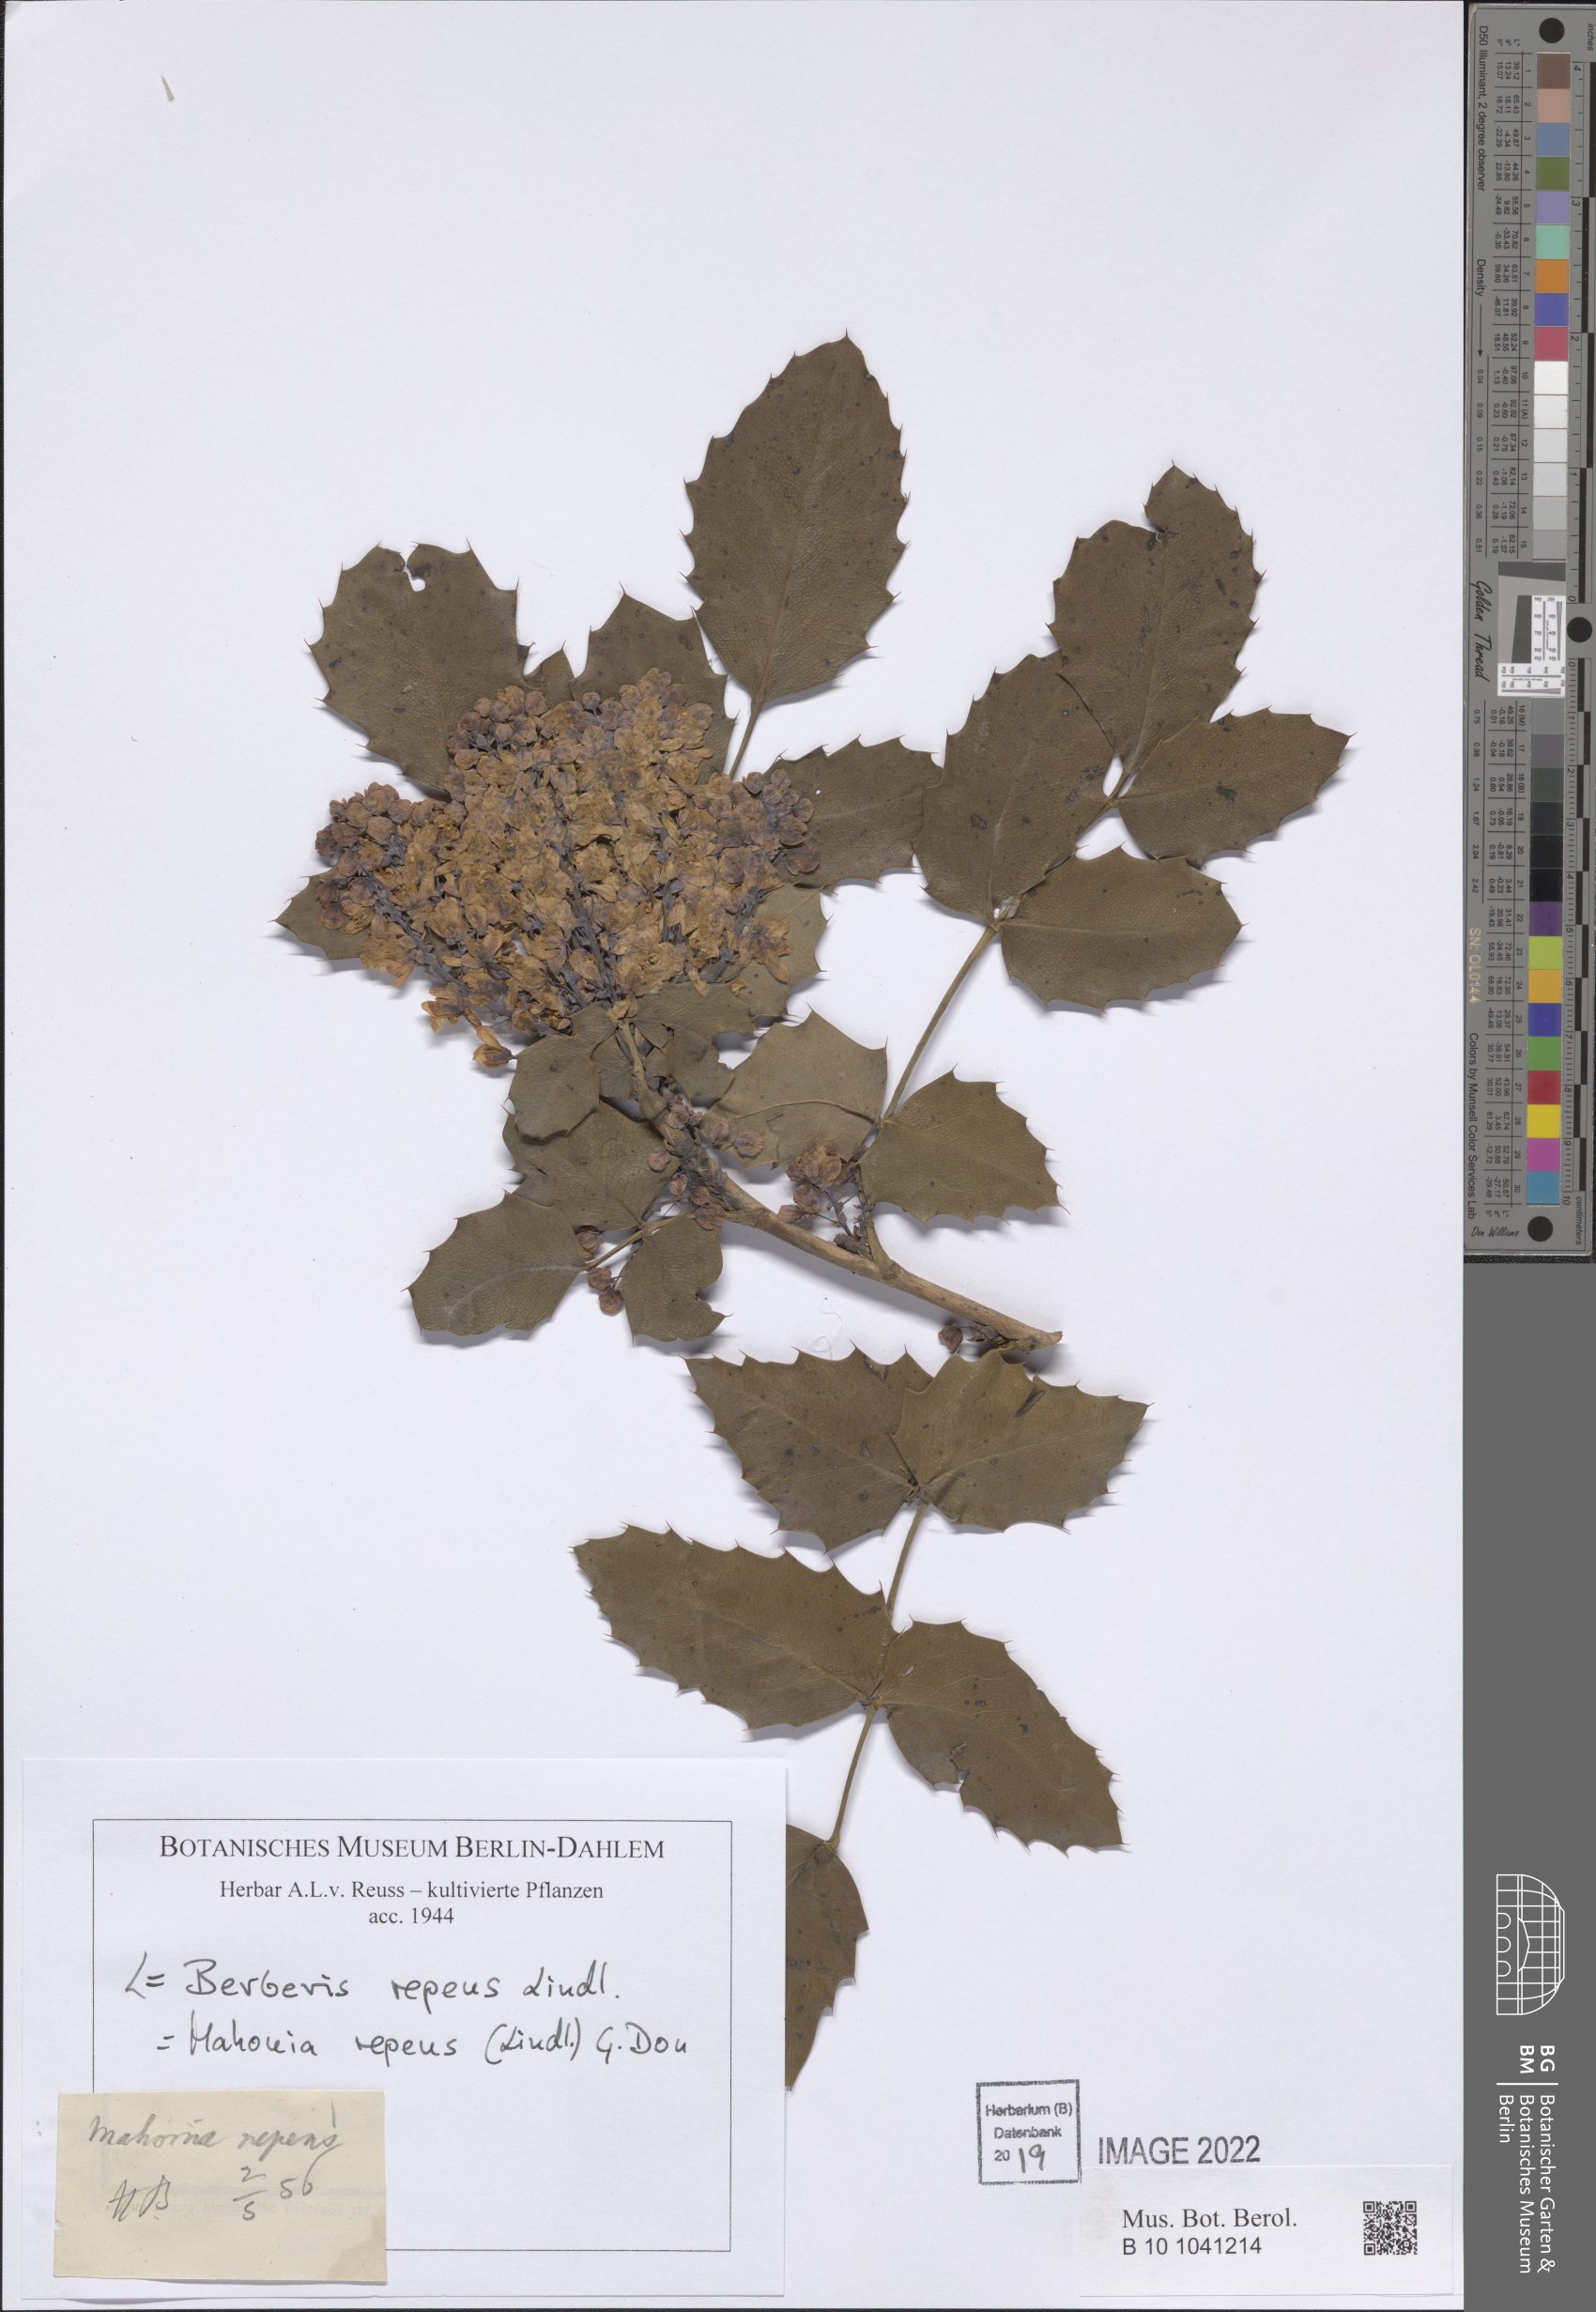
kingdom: Plantae
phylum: Tracheophyta
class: Magnoliopsida
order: Ranunculales
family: Berberidaceae
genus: Mahonia
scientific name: Mahonia repens
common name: Creeping oregon-grape
